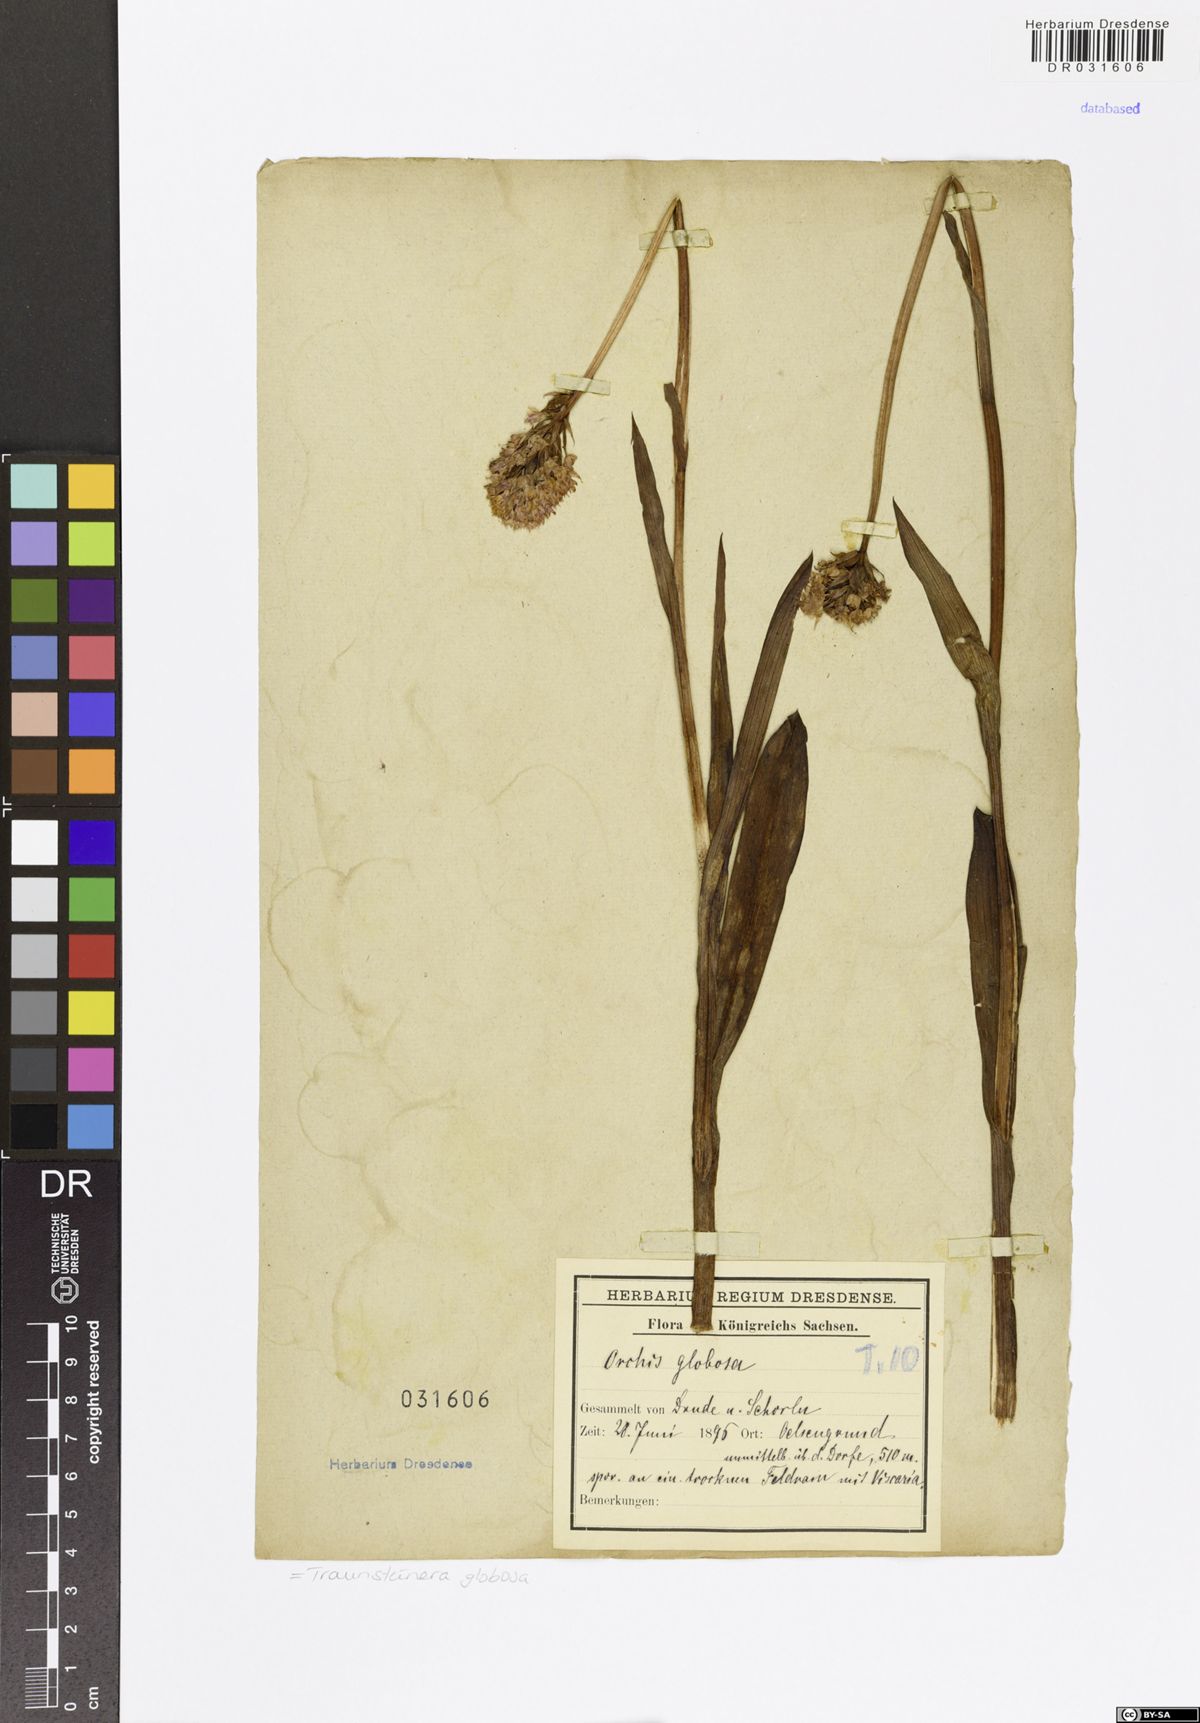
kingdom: Plantae
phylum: Tracheophyta
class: Liliopsida
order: Asparagales
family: Orchidaceae
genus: Traunsteinera
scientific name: Traunsteinera globosa
